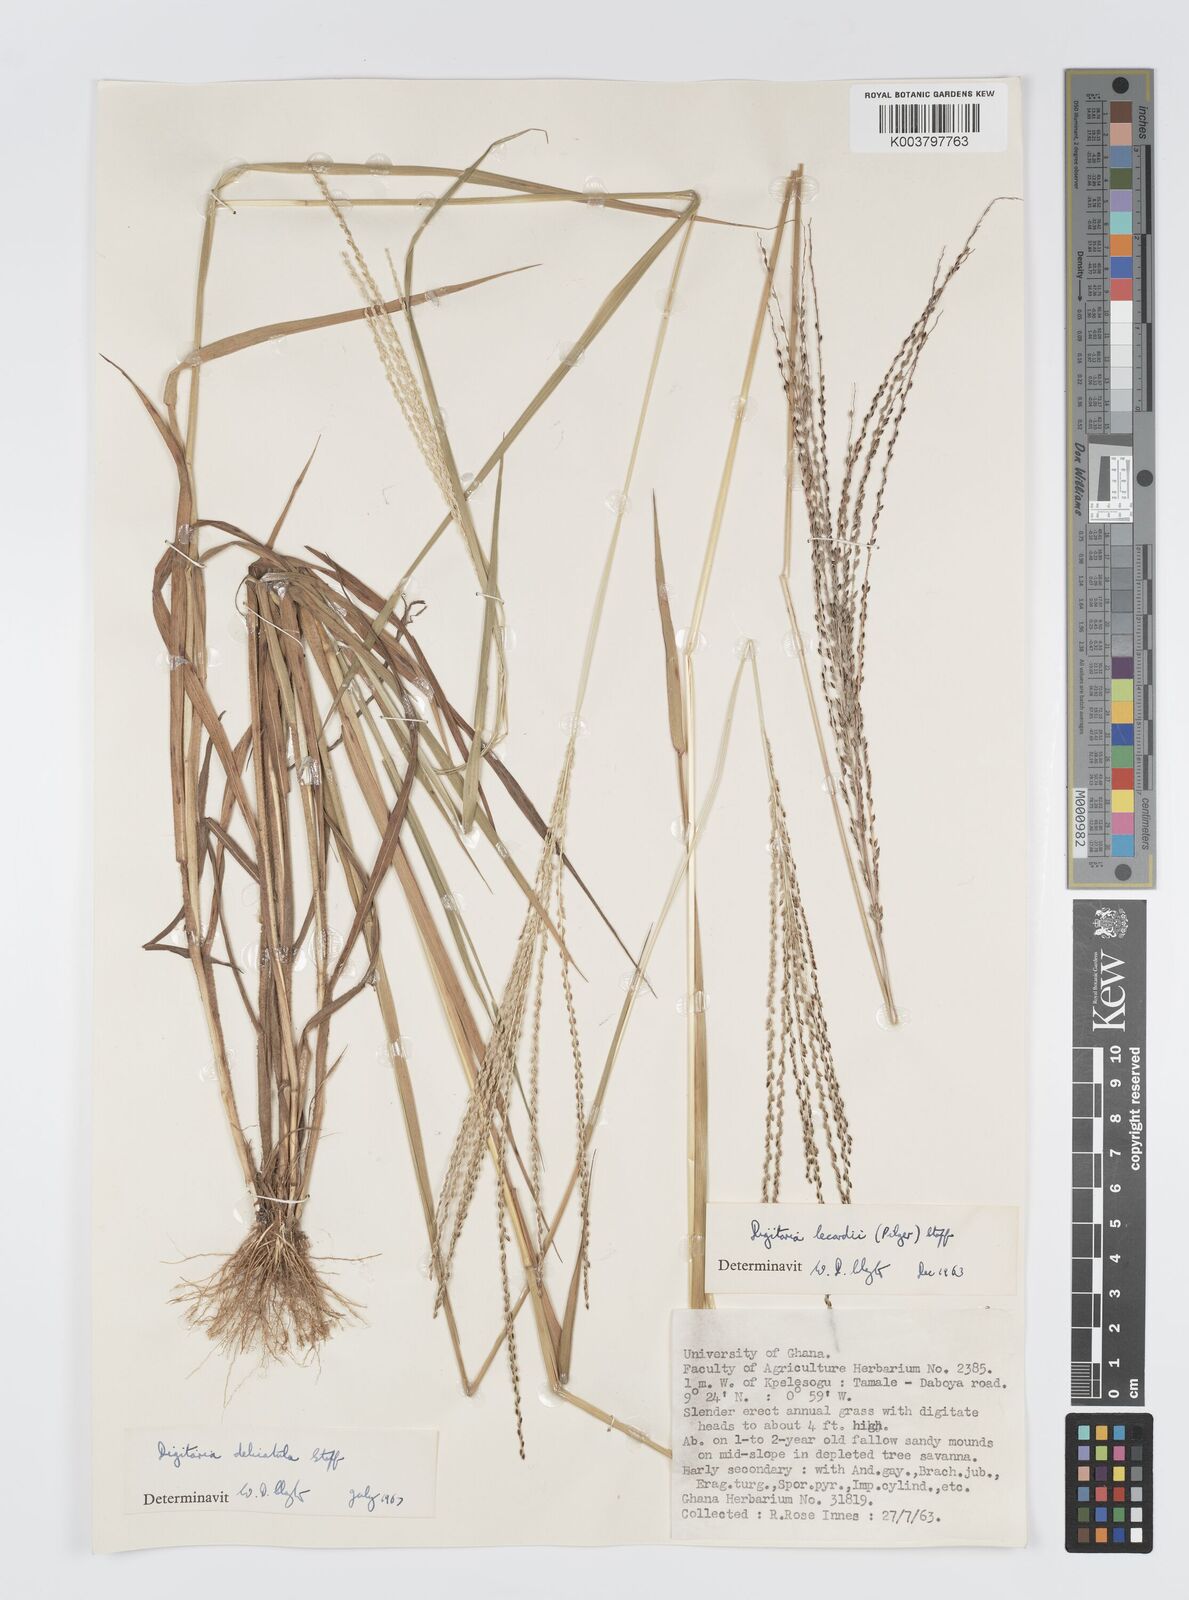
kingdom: Plantae
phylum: Tracheophyta
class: Liliopsida
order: Poales
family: Poaceae
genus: Digitaria
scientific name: Digitaria delicatula
